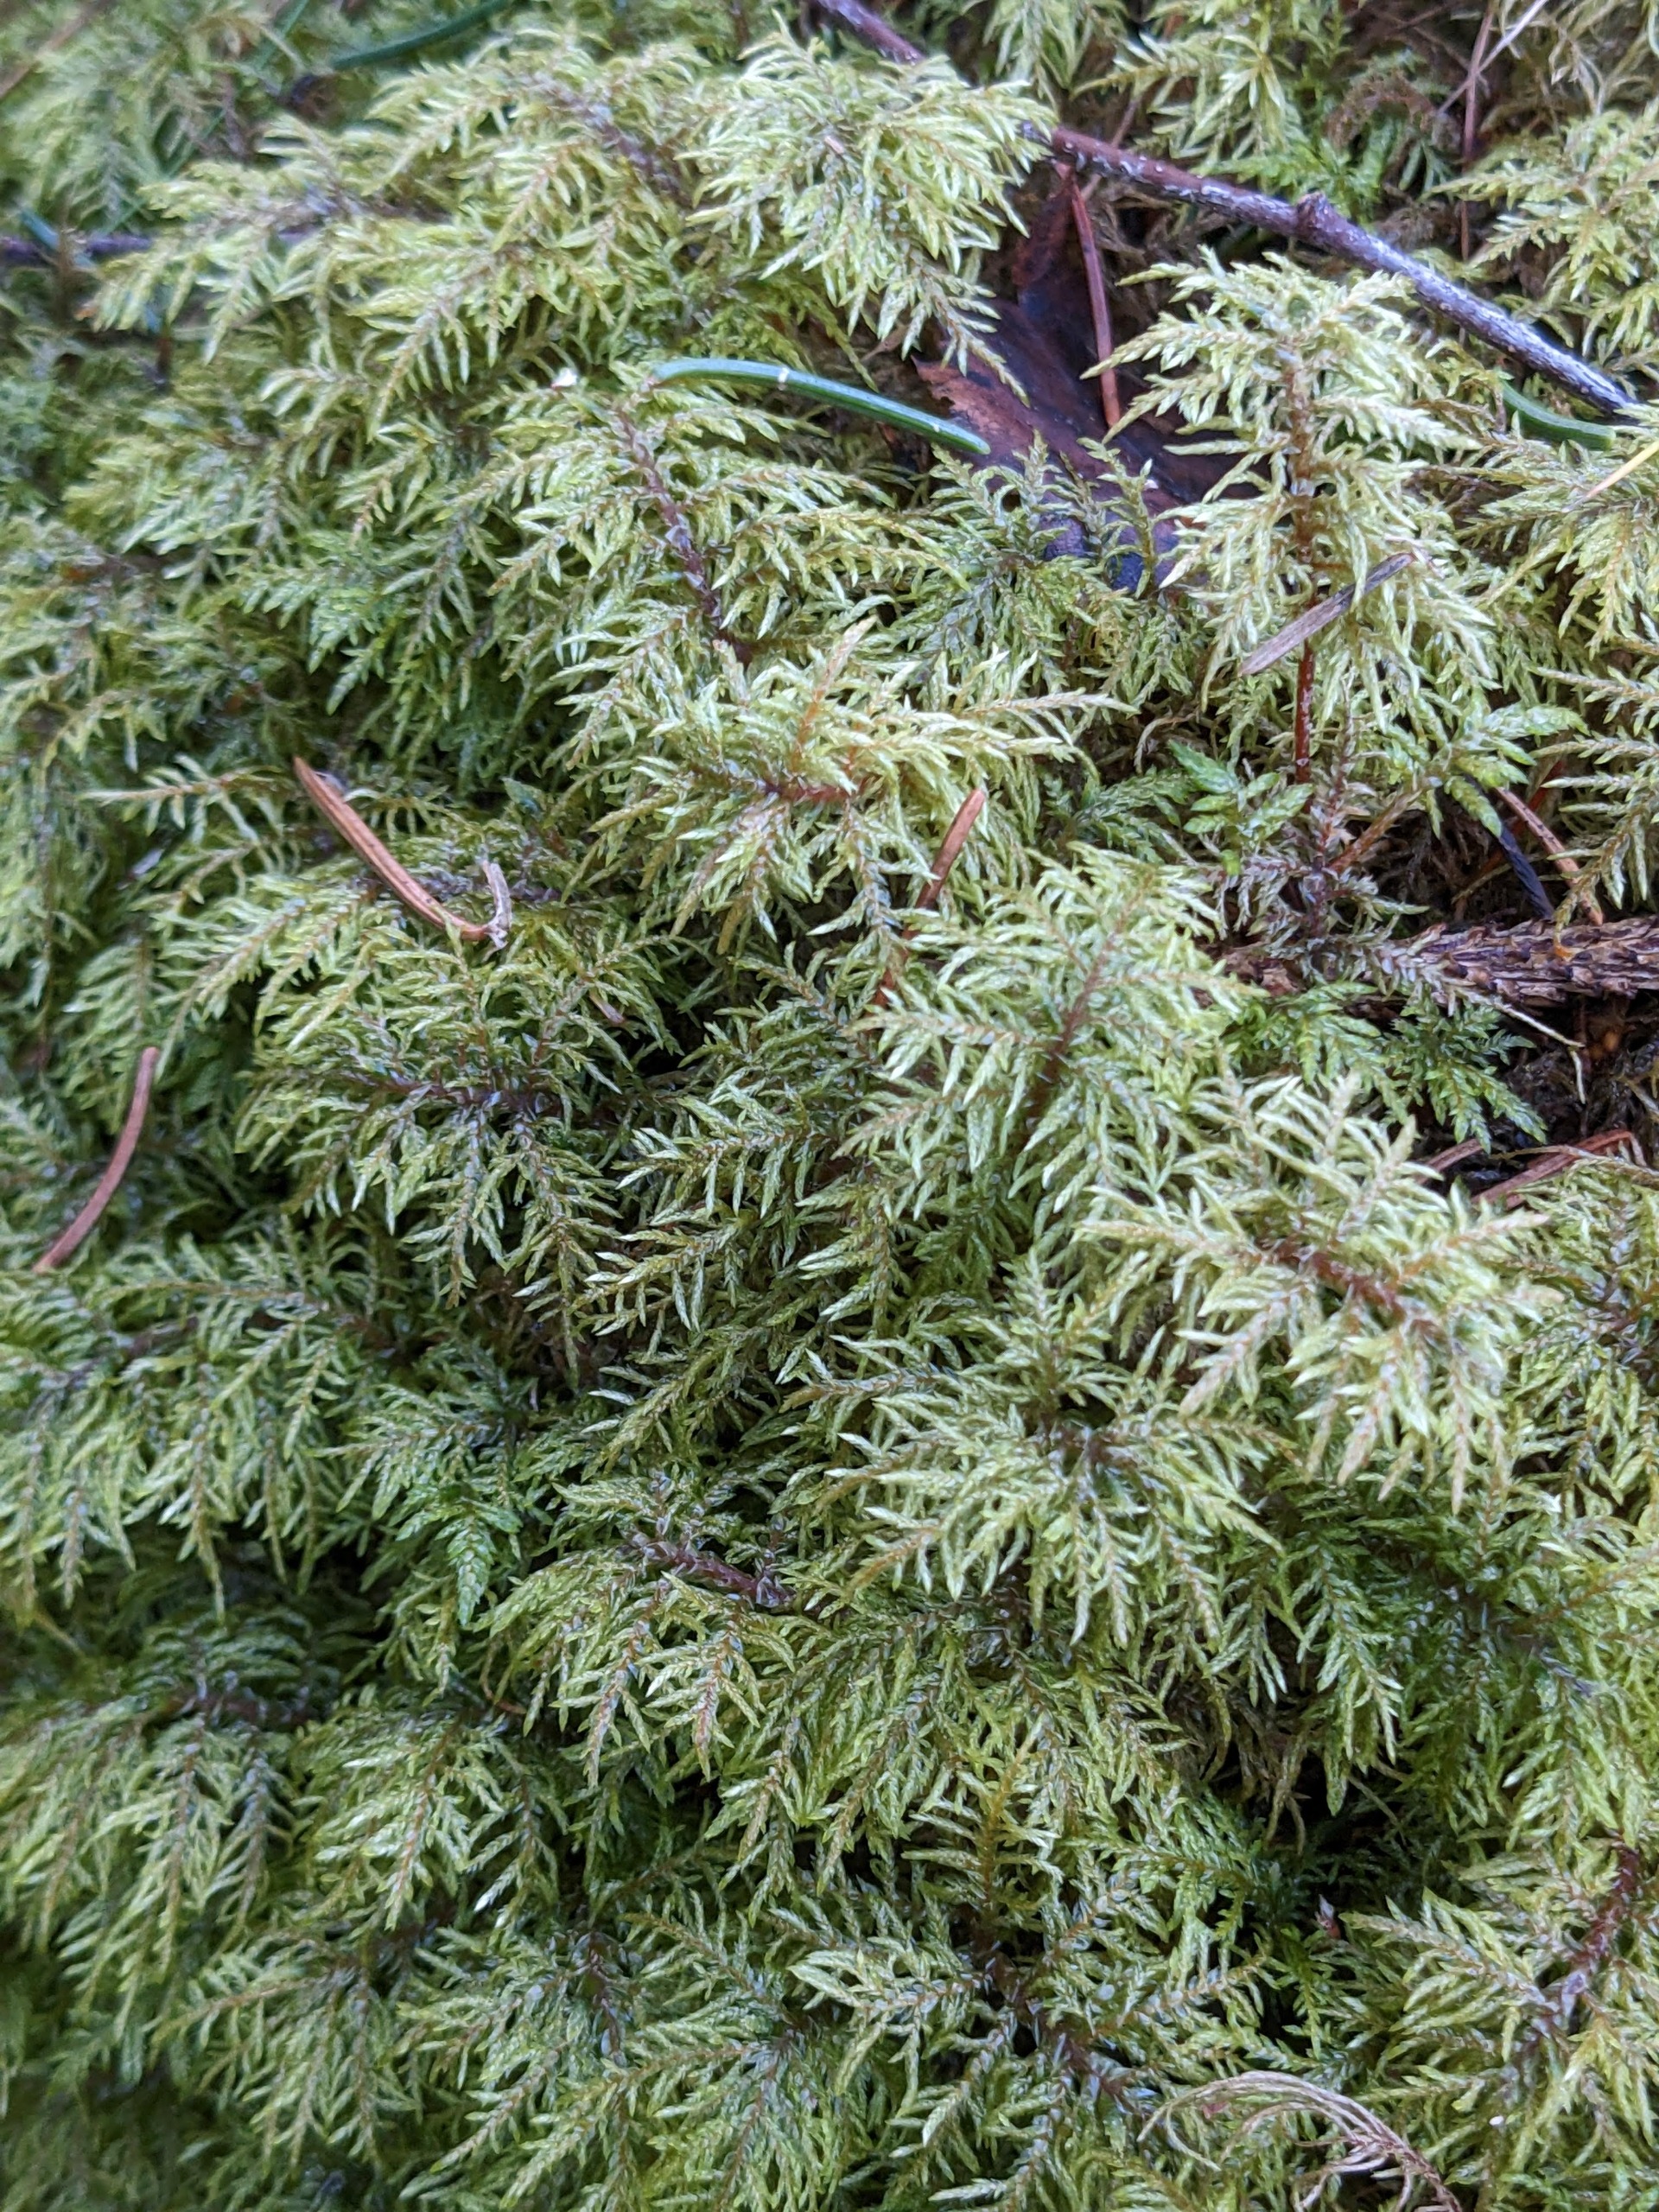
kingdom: Plantae
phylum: Bryophyta
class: Bryopsida
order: Hypnales
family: Hylocomiaceae
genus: Hylocomium
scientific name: Hylocomium splendens
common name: Almindelig etagemos
